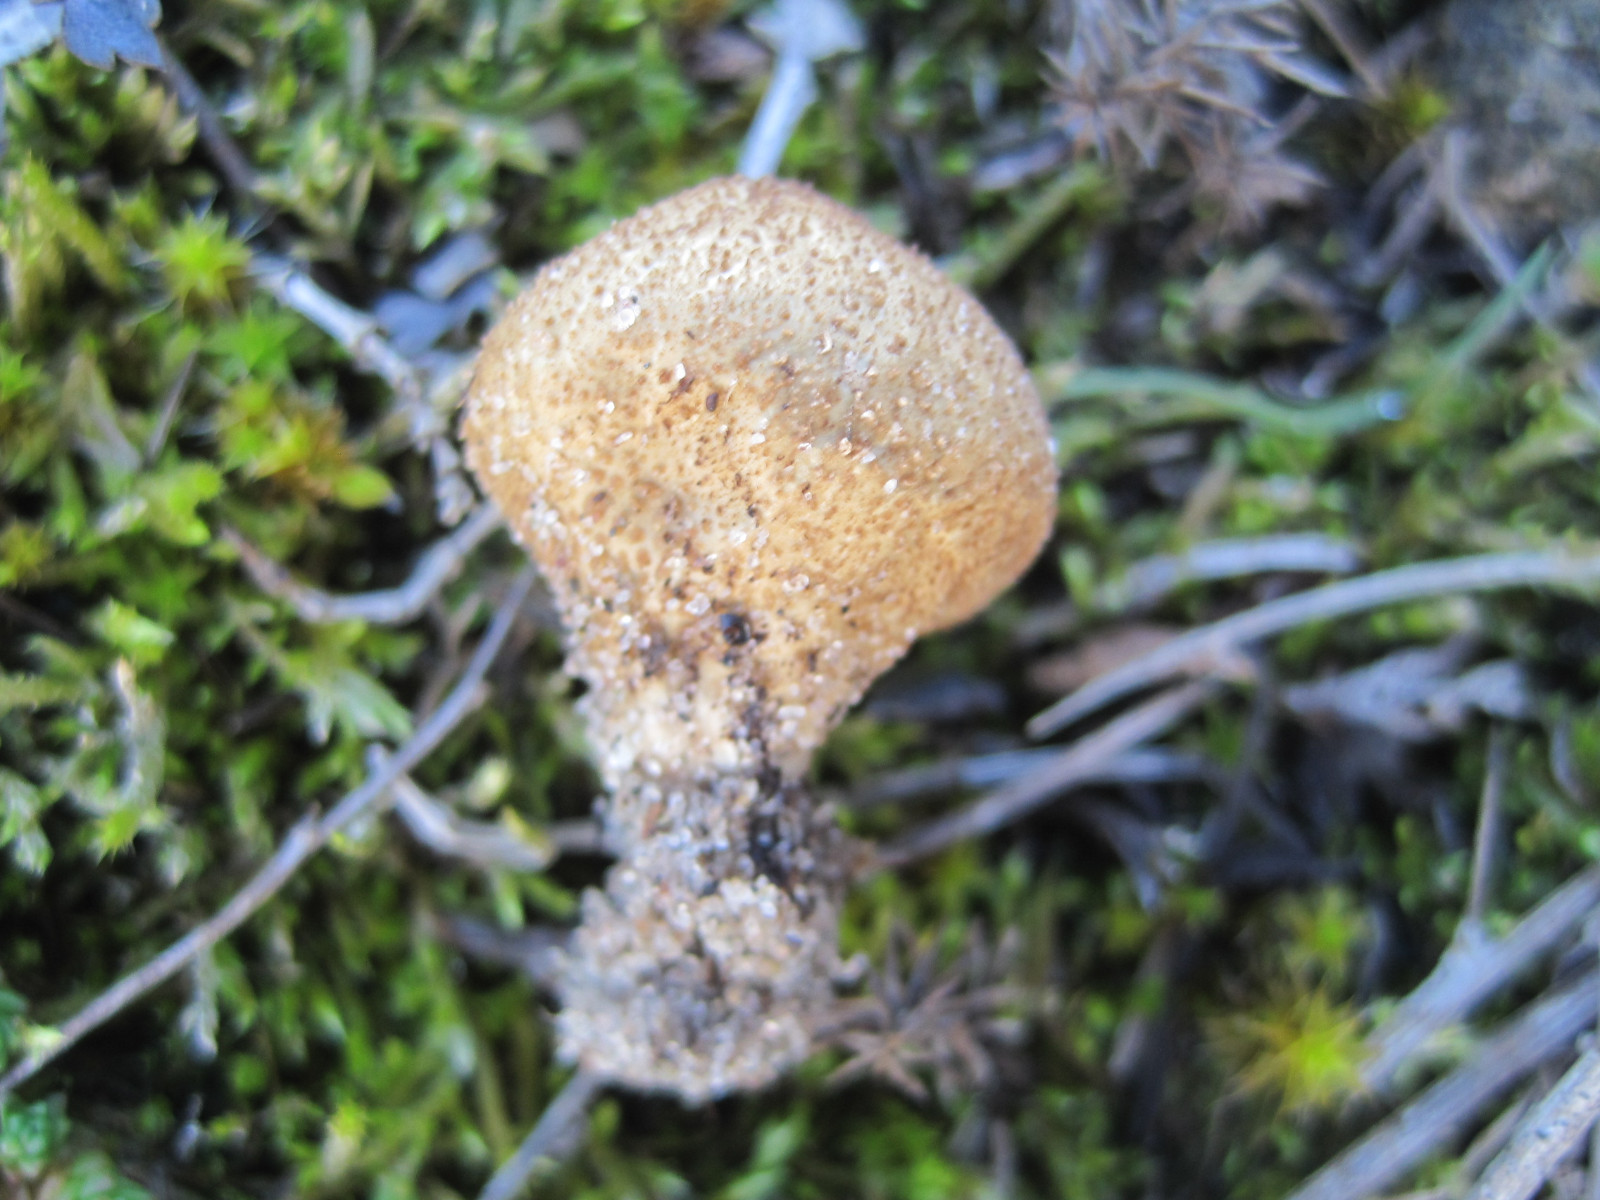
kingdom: Fungi
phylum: Basidiomycota
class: Agaricomycetes
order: Agaricales
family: Lycoperdaceae
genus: Lycoperdon
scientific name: Lycoperdon lividum
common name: mark-støvbold
